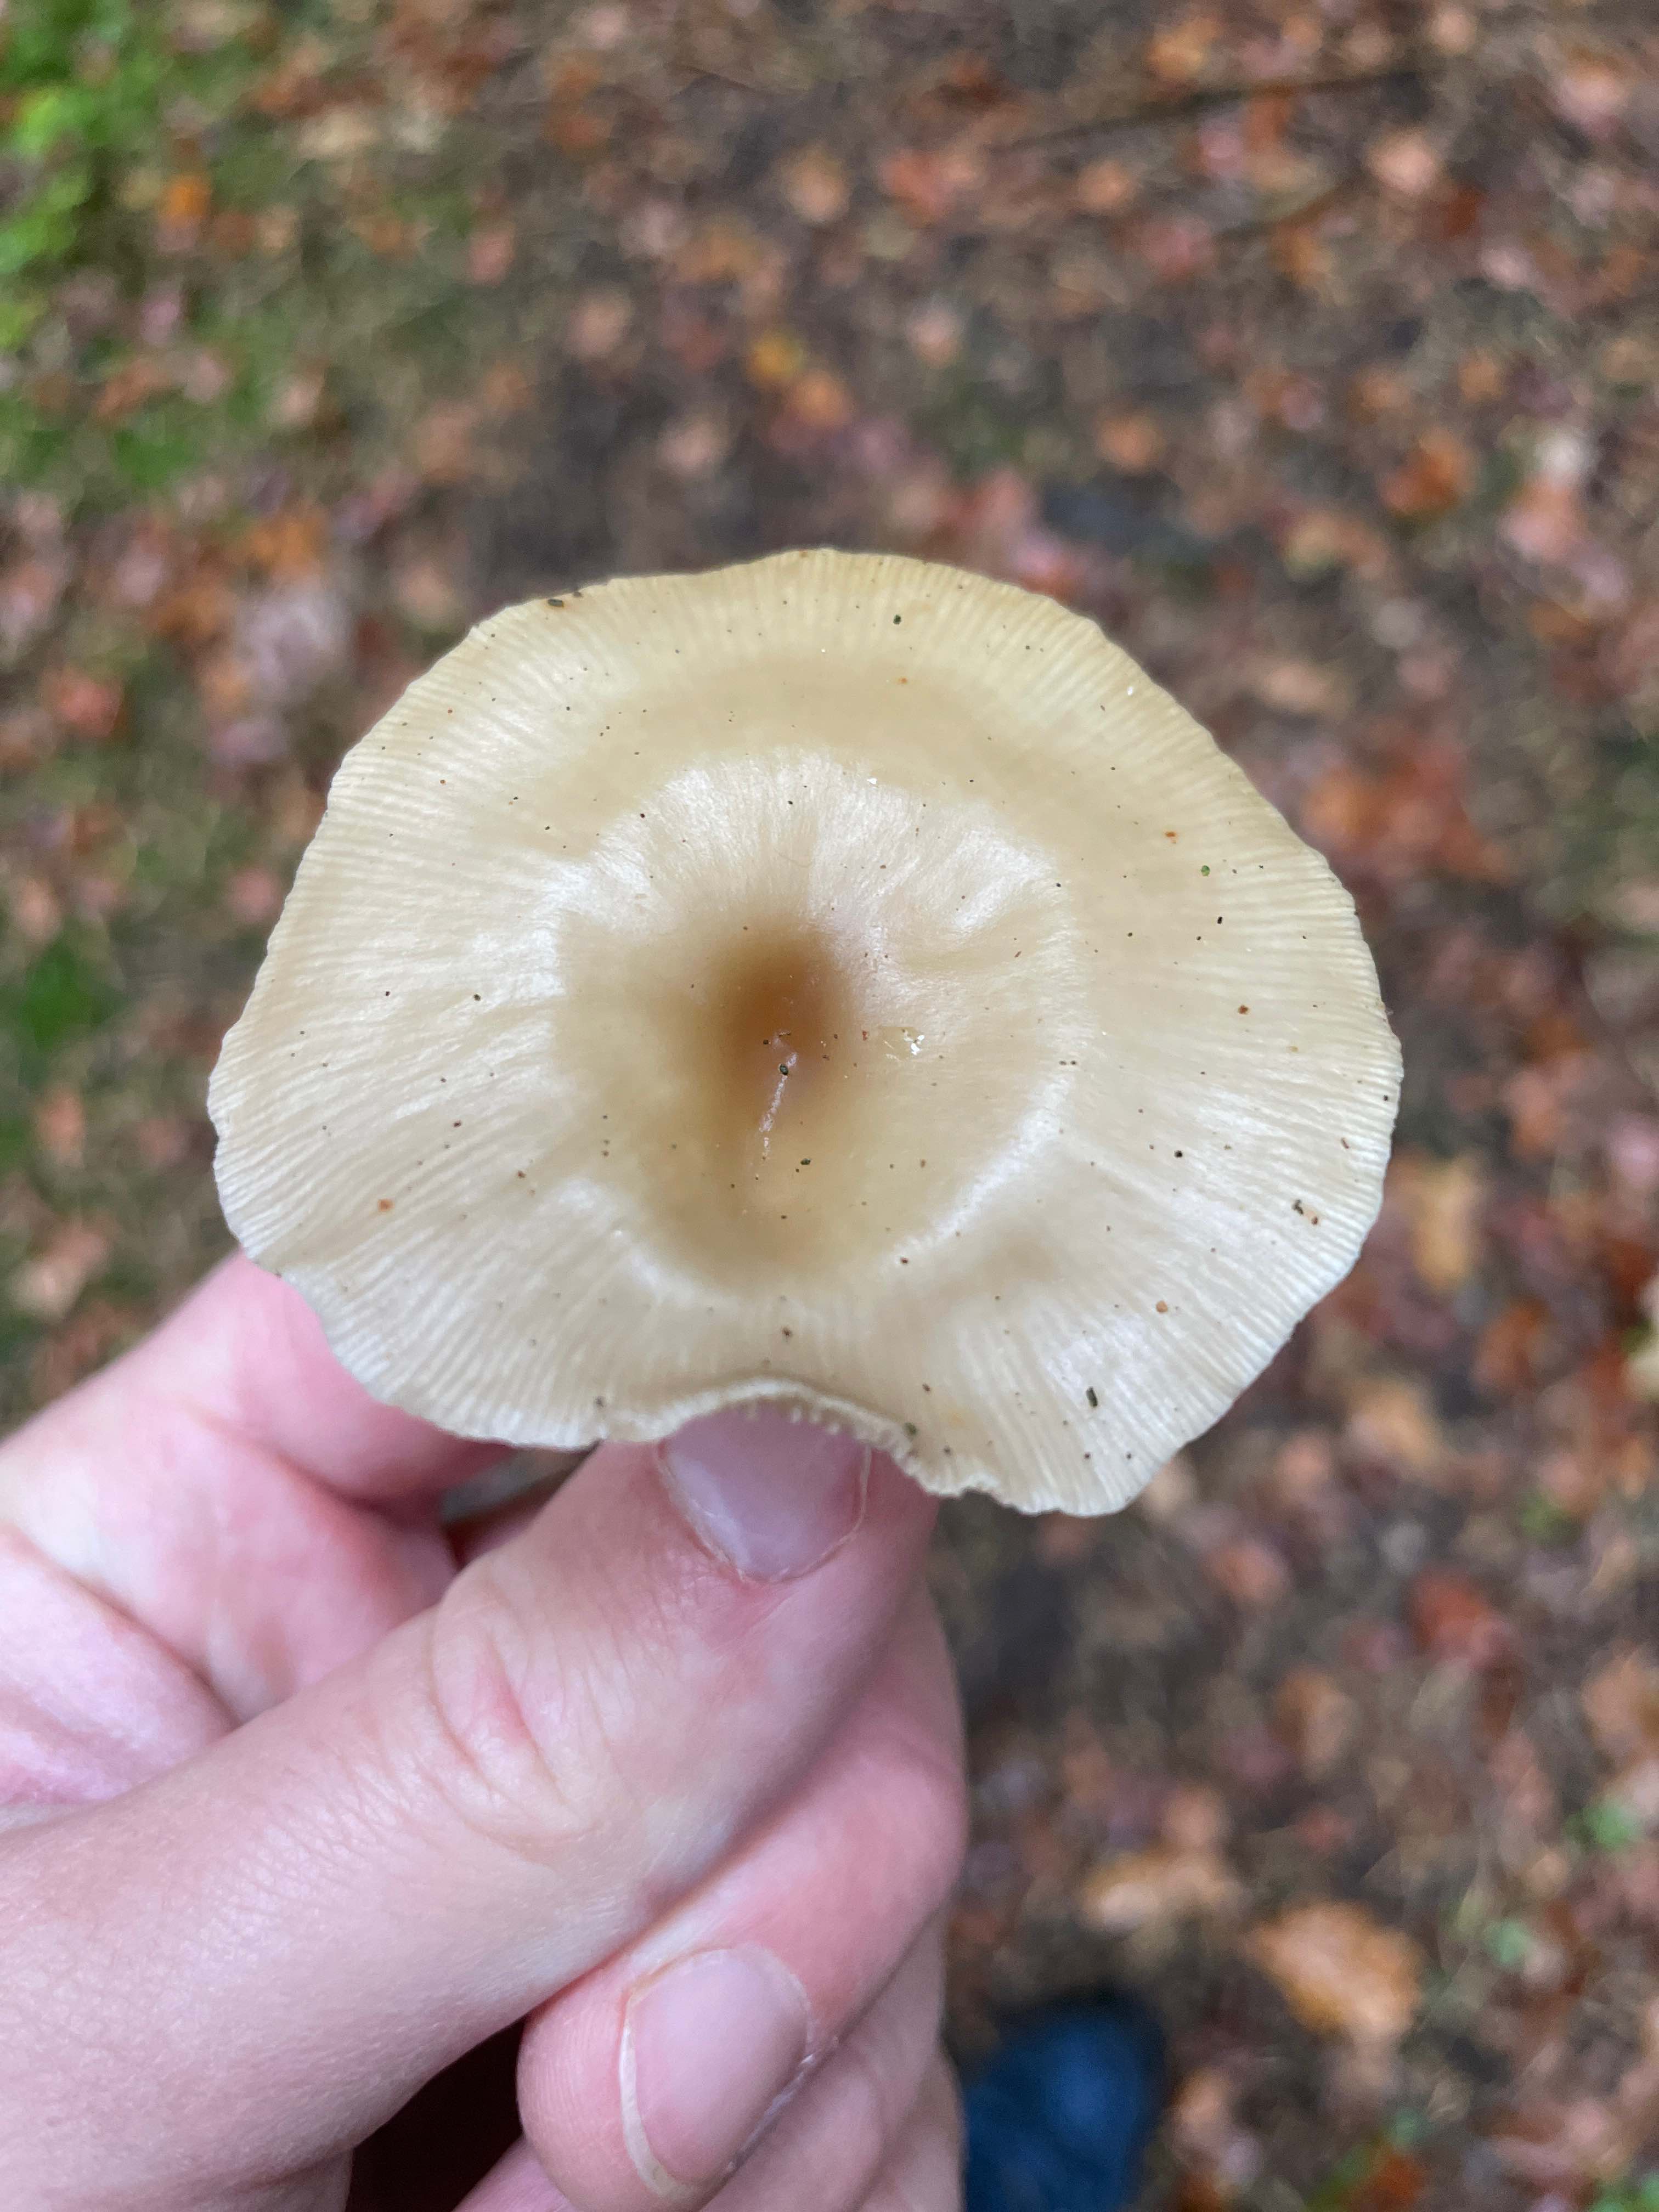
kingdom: Fungi
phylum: Basidiomycota
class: Agaricomycetes
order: Agaricales
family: Tricholomataceae
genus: Clitocybe
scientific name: Clitocybe
